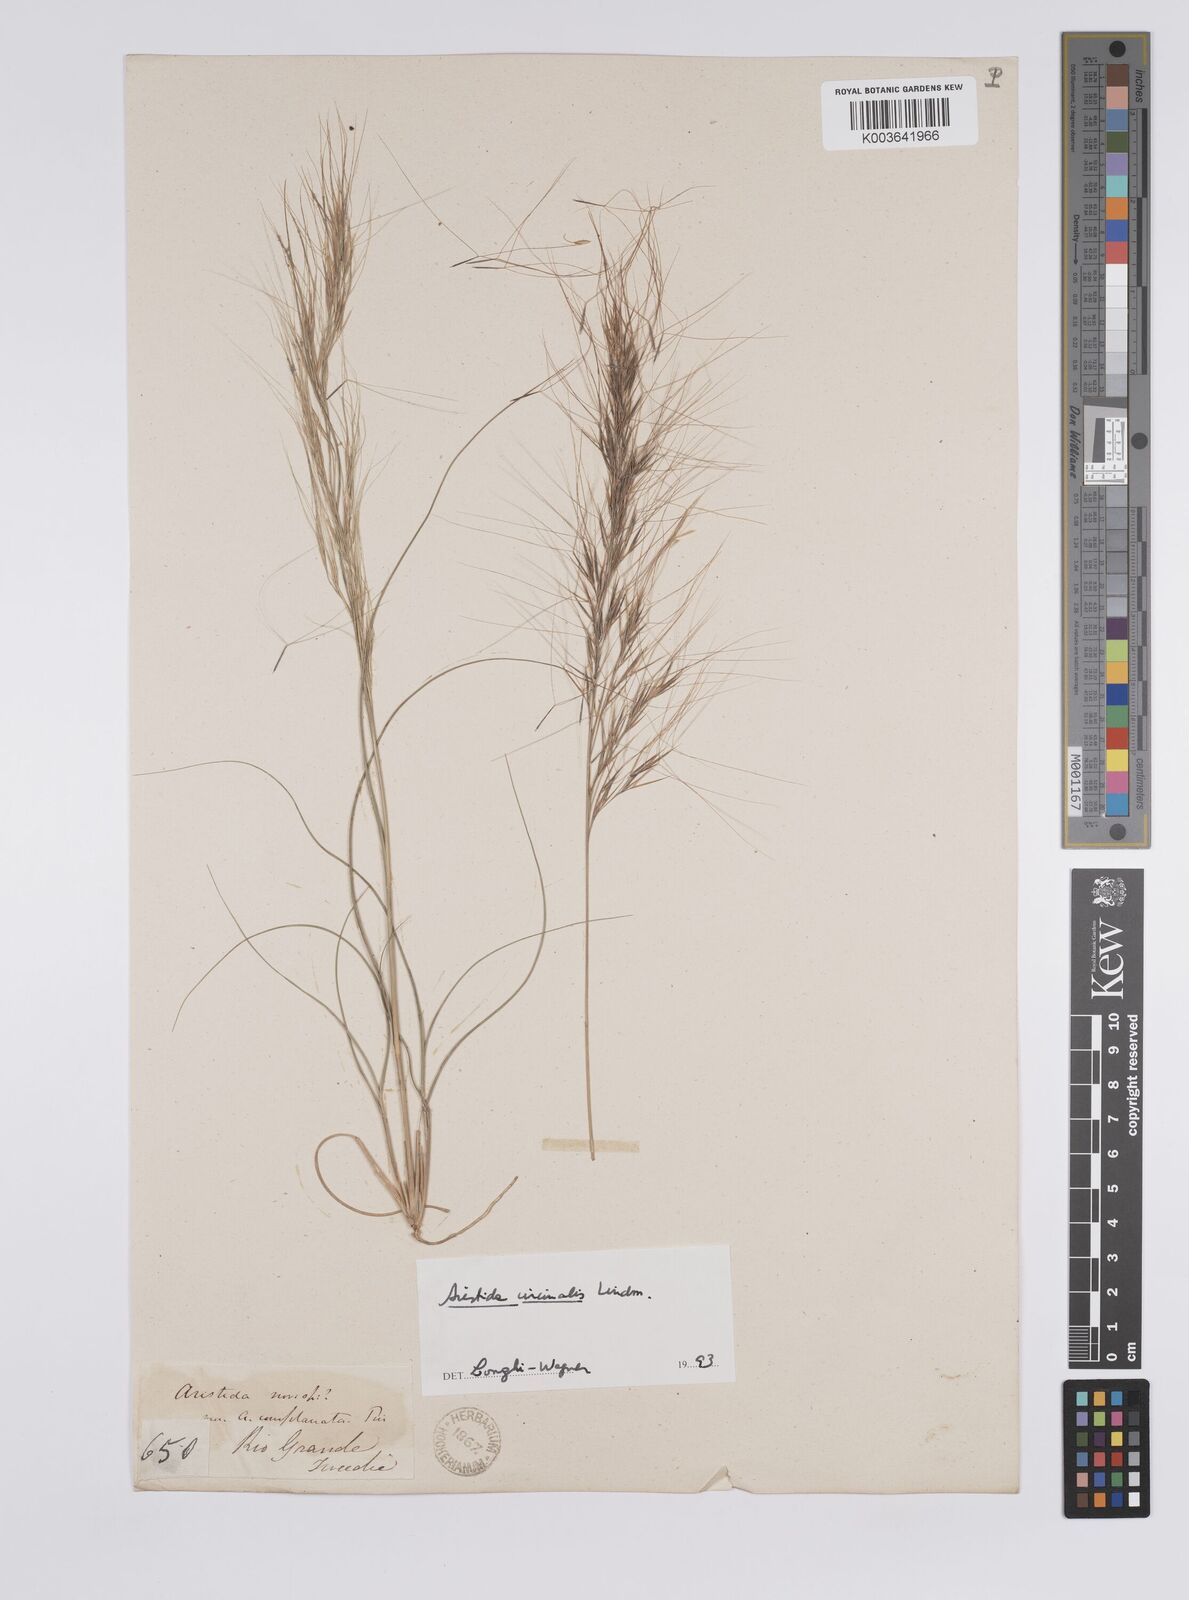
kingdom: Plantae
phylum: Tracheophyta
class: Liliopsida
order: Poales
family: Poaceae
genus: Aristida
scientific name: Aristida circinalis
